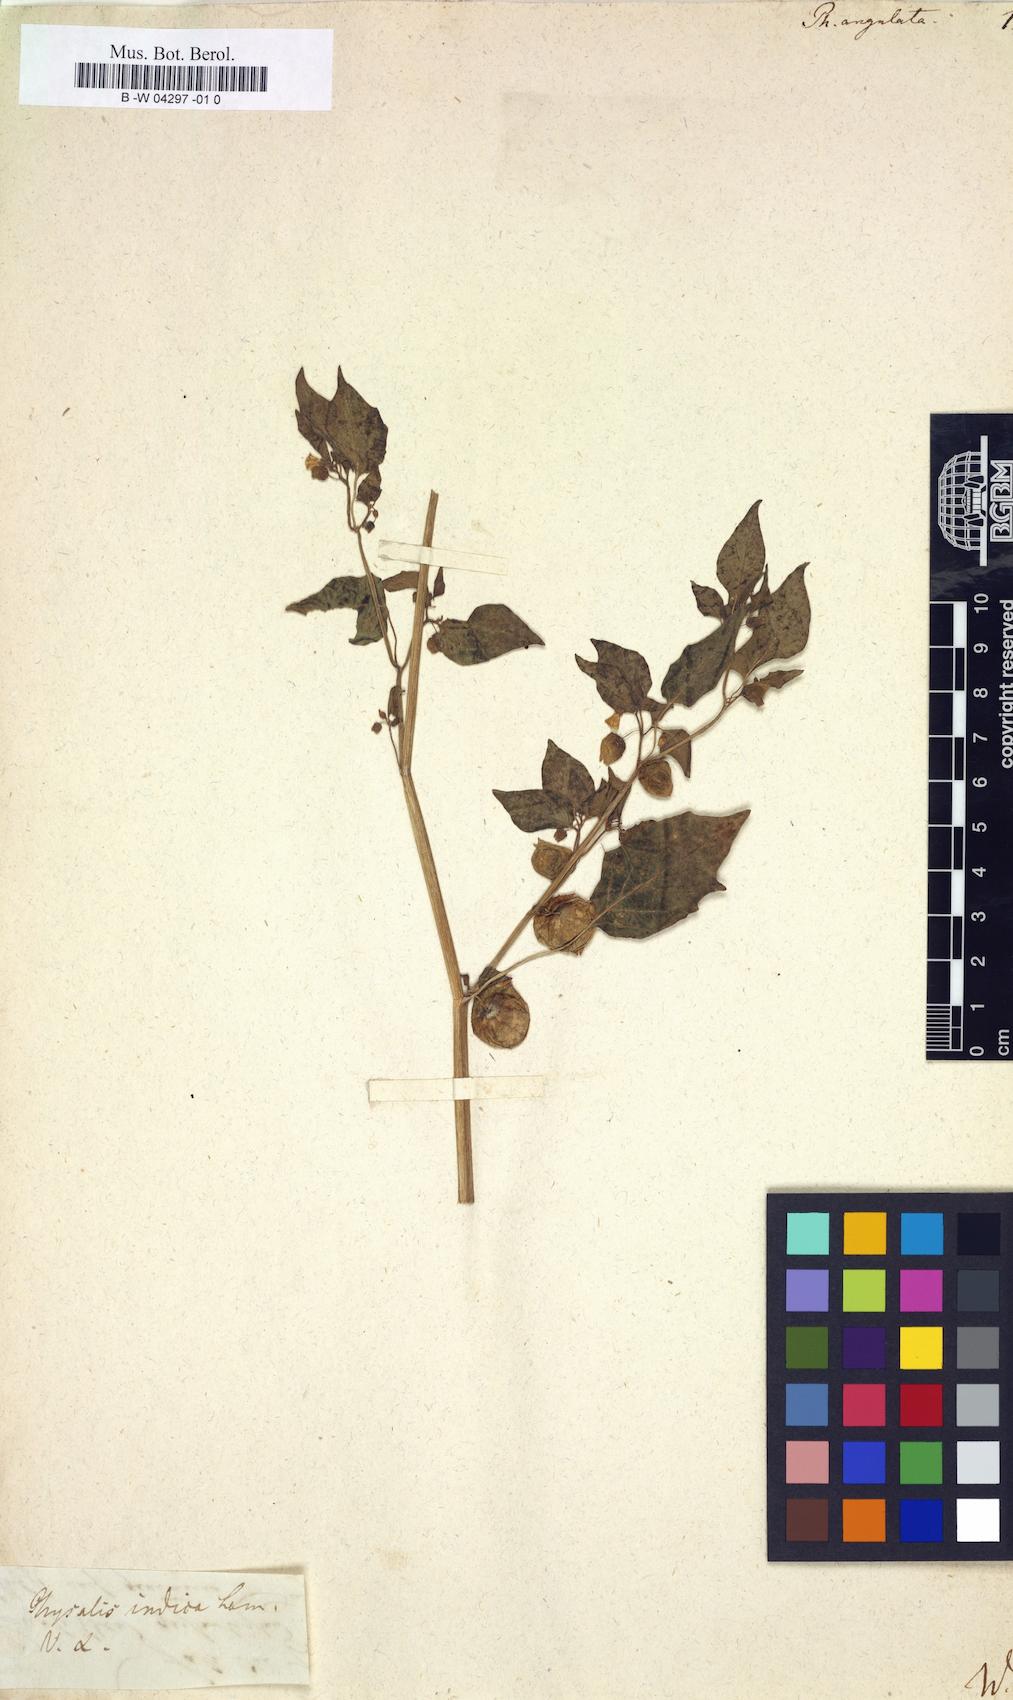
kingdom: Plantae
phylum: Tracheophyta
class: Magnoliopsida
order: Solanales
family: Solanaceae
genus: Physalis
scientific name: Physalis angulata
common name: Angular winter-cherry
